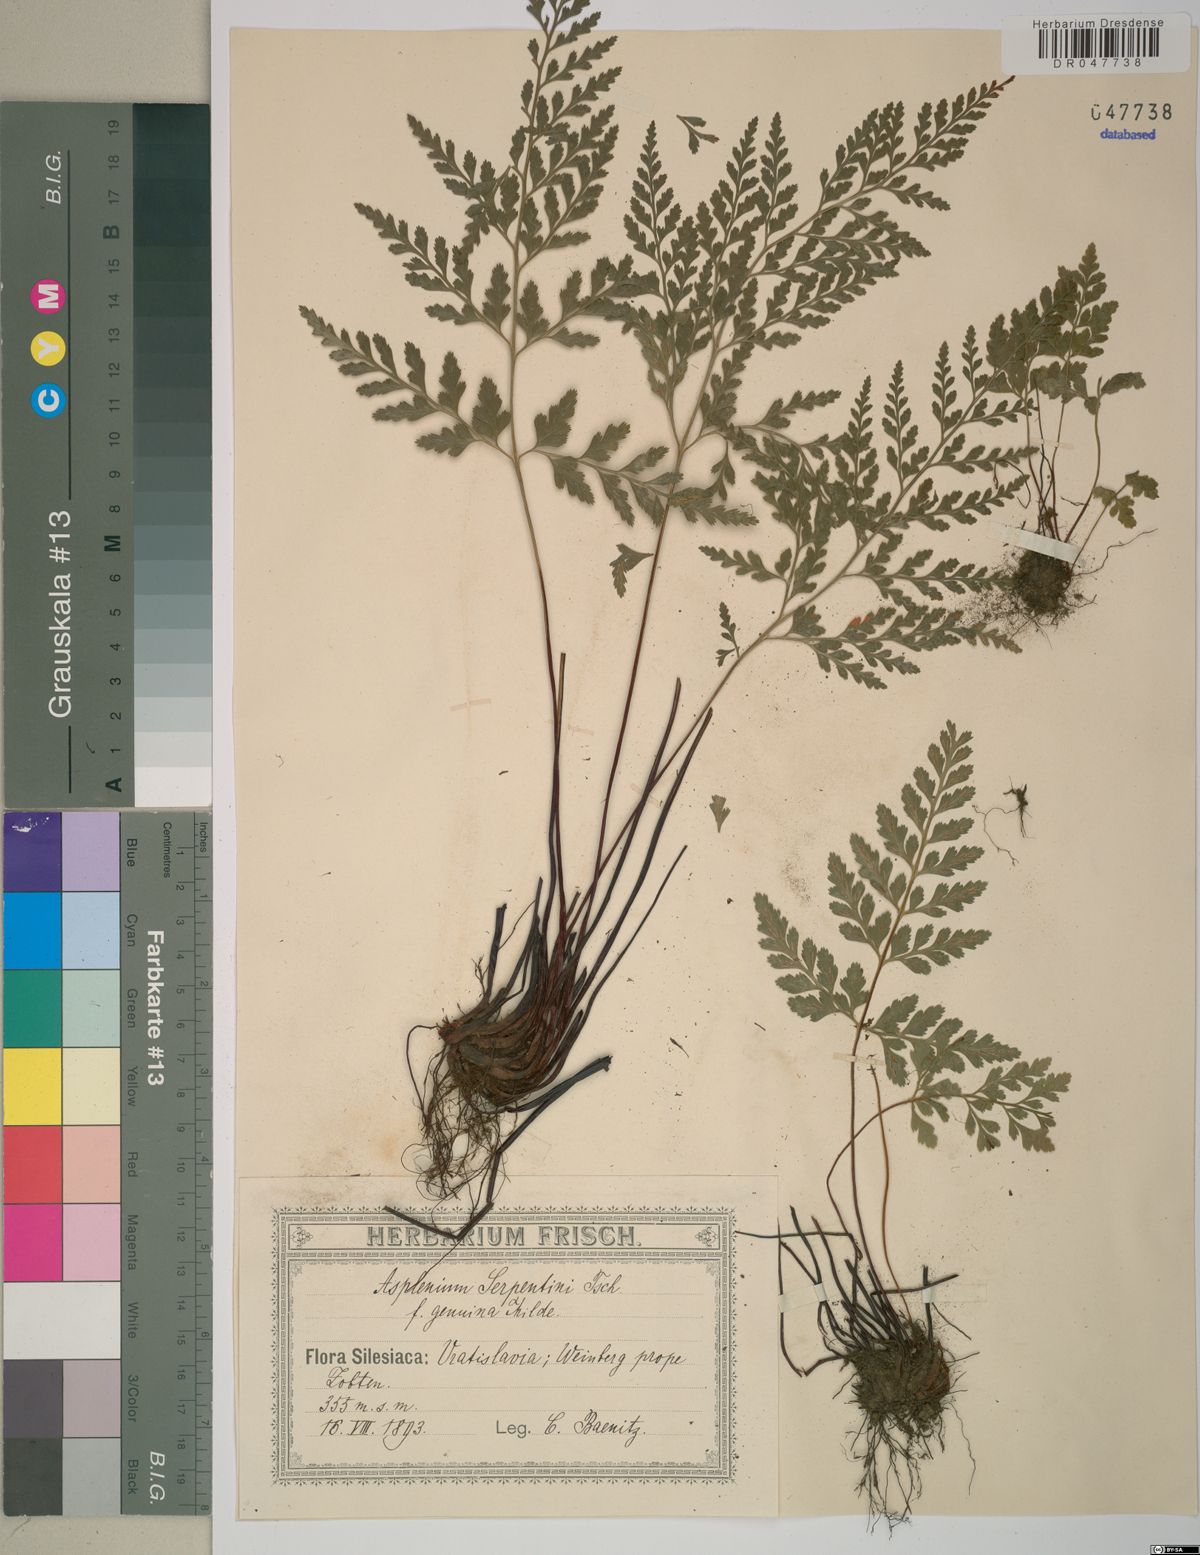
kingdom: Plantae
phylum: Tracheophyta
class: Polypodiopsida
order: Polypodiales
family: Aspleniaceae
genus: Asplenium
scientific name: Asplenium cuneifolium
